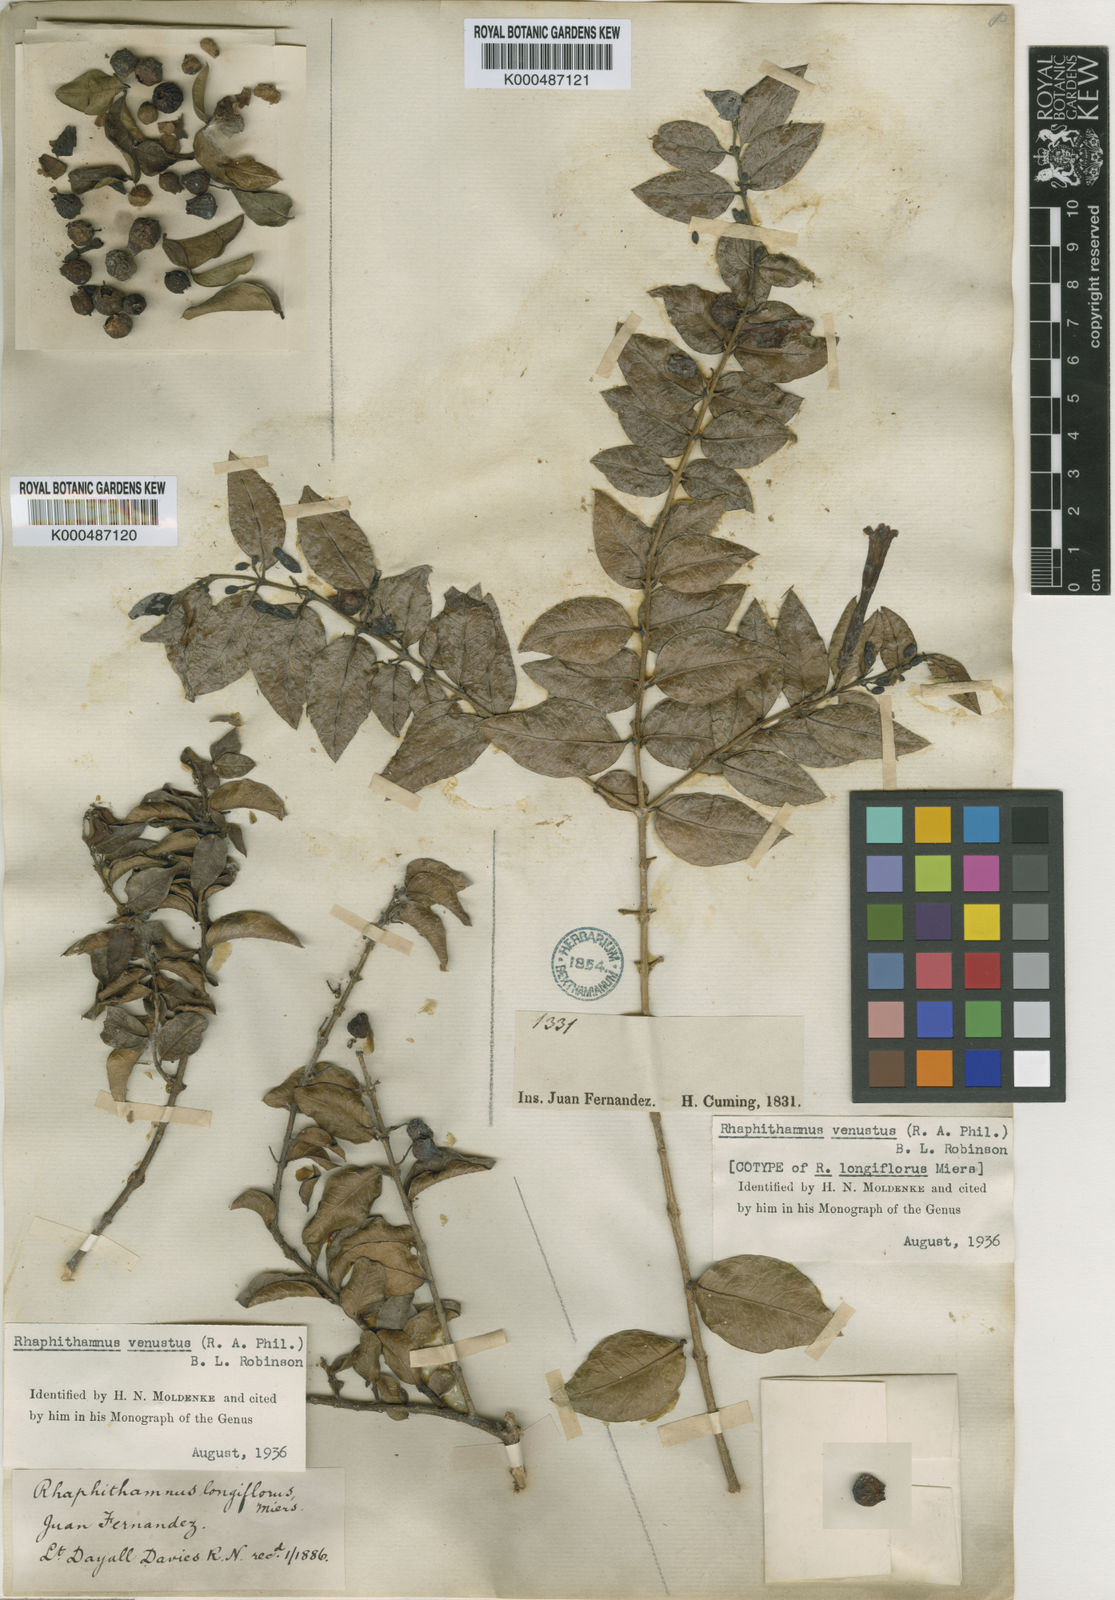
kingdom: Plantae
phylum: Tracheophyta
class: Magnoliopsida
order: Lamiales
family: Verbenaceae
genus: Rhaphithamnus
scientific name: Rhaphithamnus venustus
